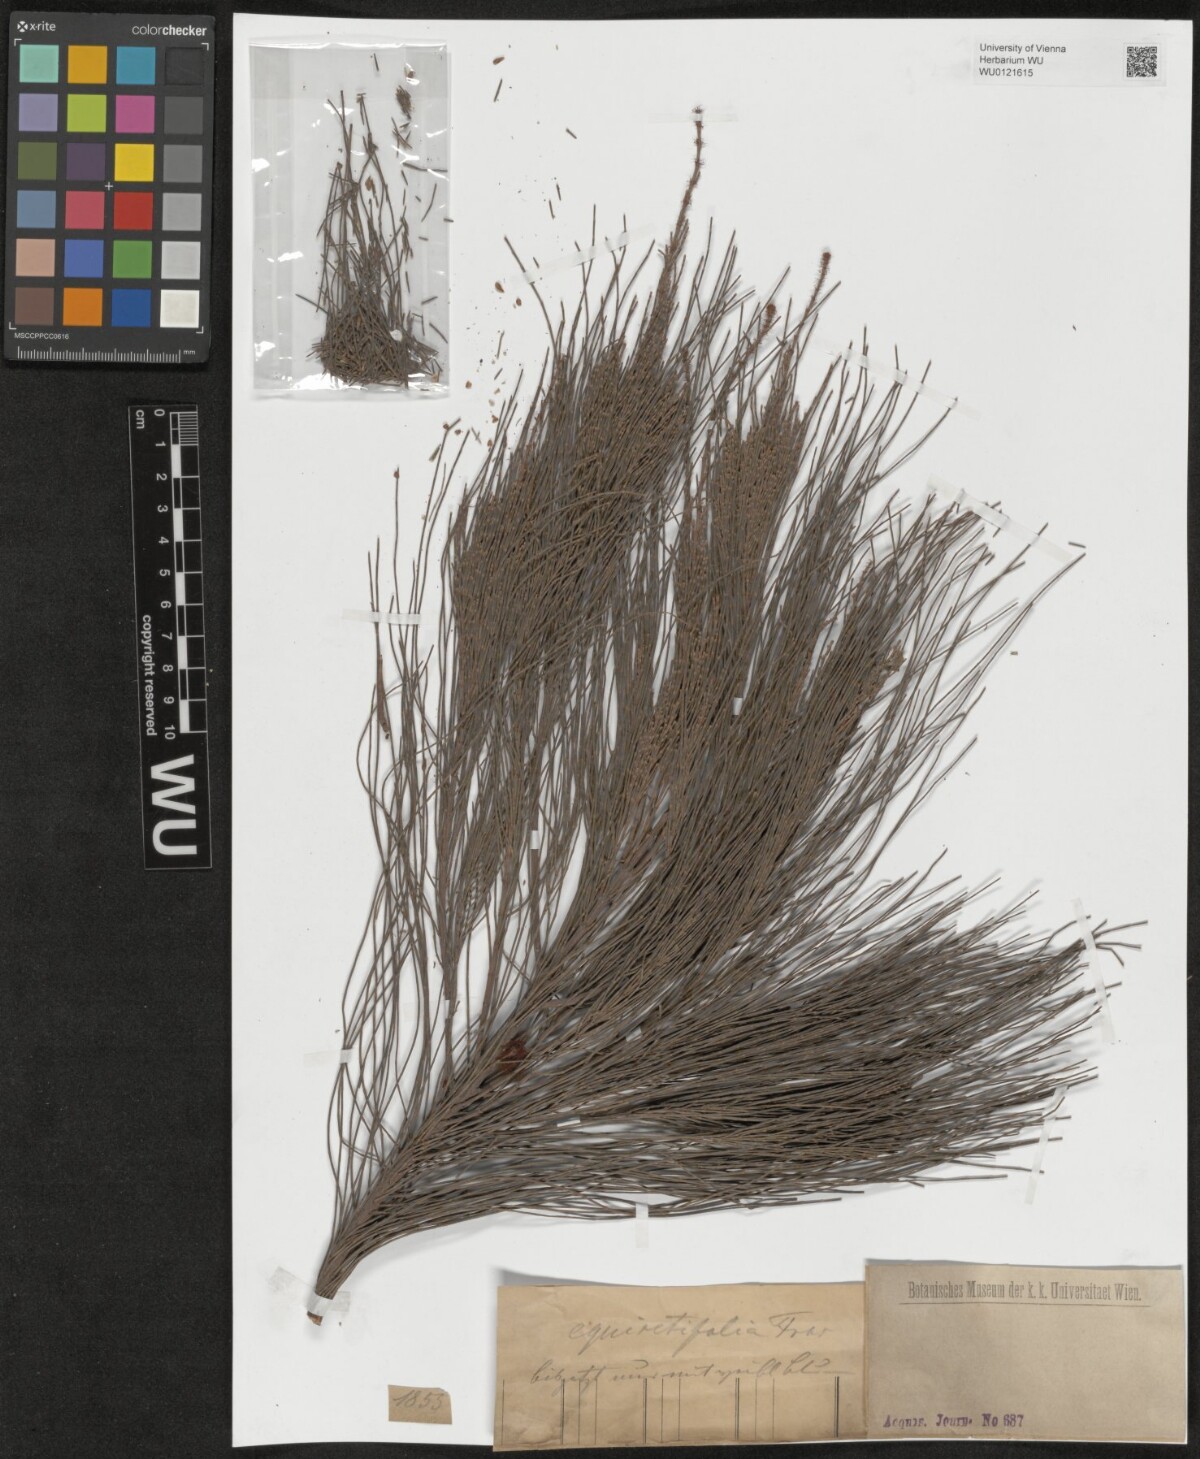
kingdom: Plantae
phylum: Tracheophyta
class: Magnoliopsida
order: Fagales
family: Casuarinaceae
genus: Casuarina
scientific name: Casuarina equisetifolia
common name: Beach sheoak
